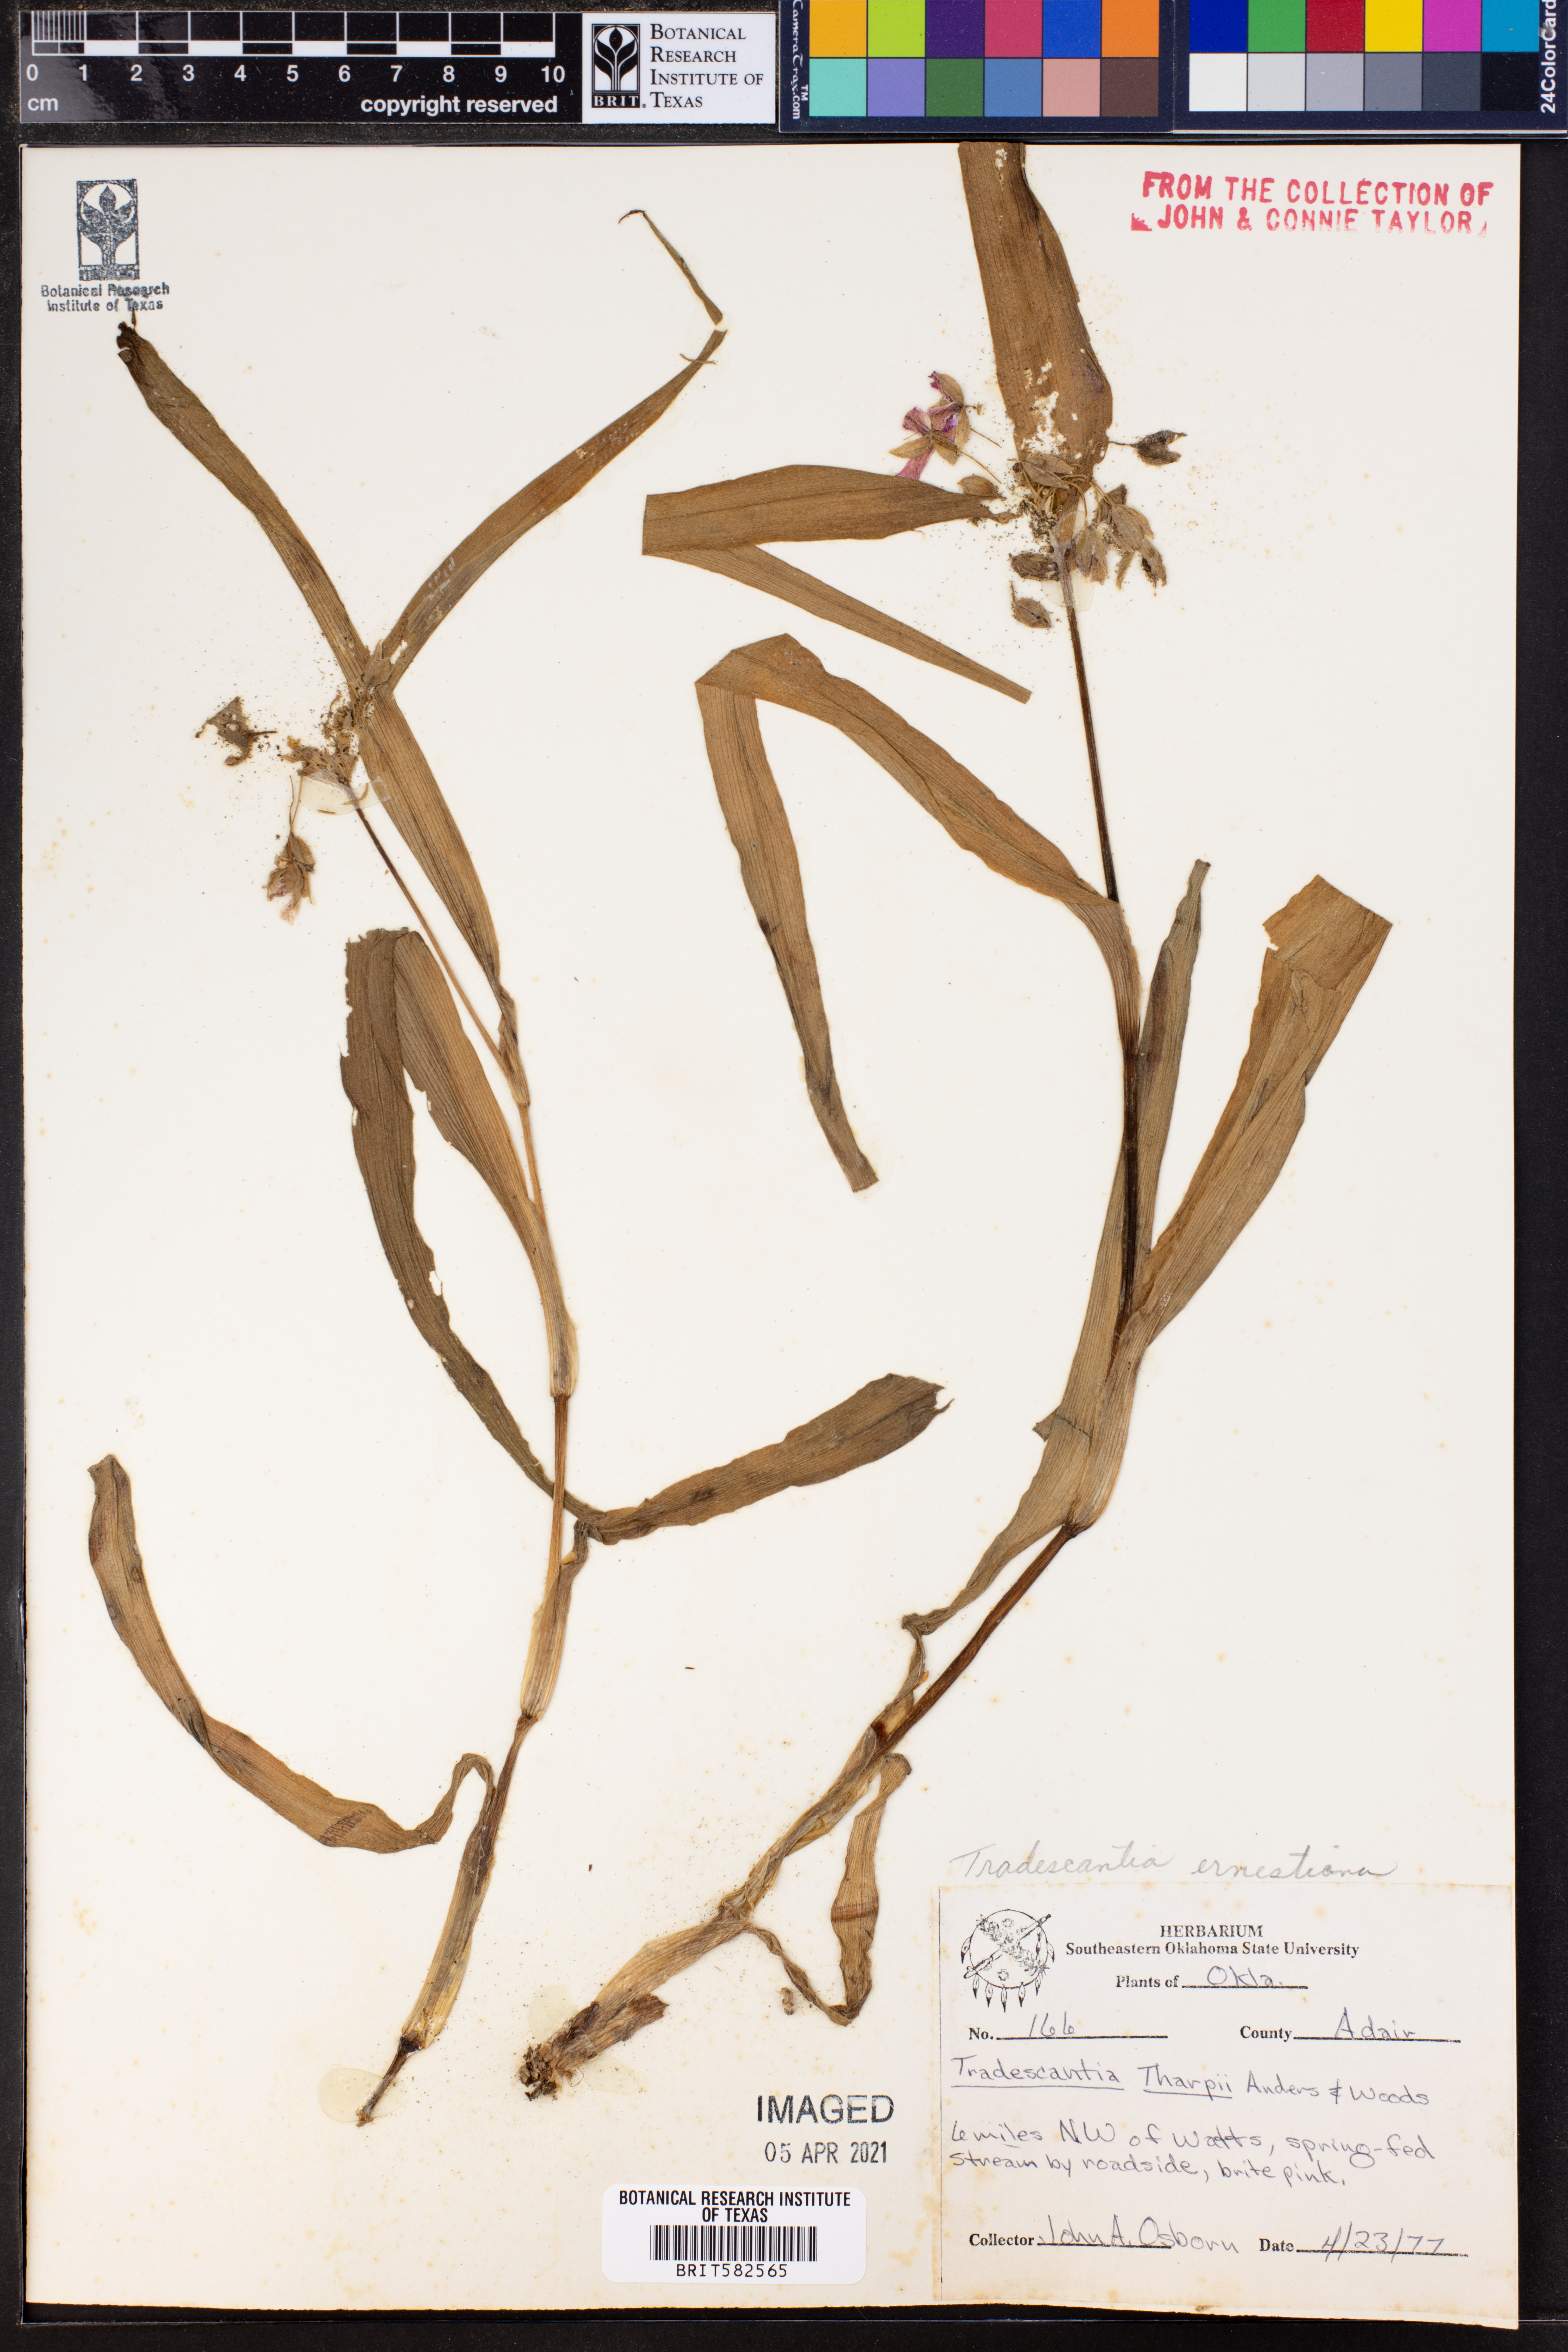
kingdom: Plantae
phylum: Tracheophyta
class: Liliopsida
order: Commelinales
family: Commelinaceae
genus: Tradescantia
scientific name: Tradescantia ernestiana
